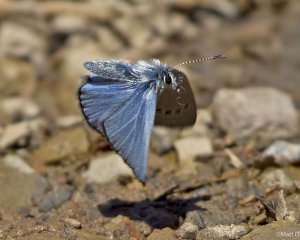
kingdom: Animalia
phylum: Arthropoda
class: Insecta
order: Lepidoptera
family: Lycaenidae
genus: Glaucopsyche
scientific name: Glaucopsyche lygdamus
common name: Silvery Blue
